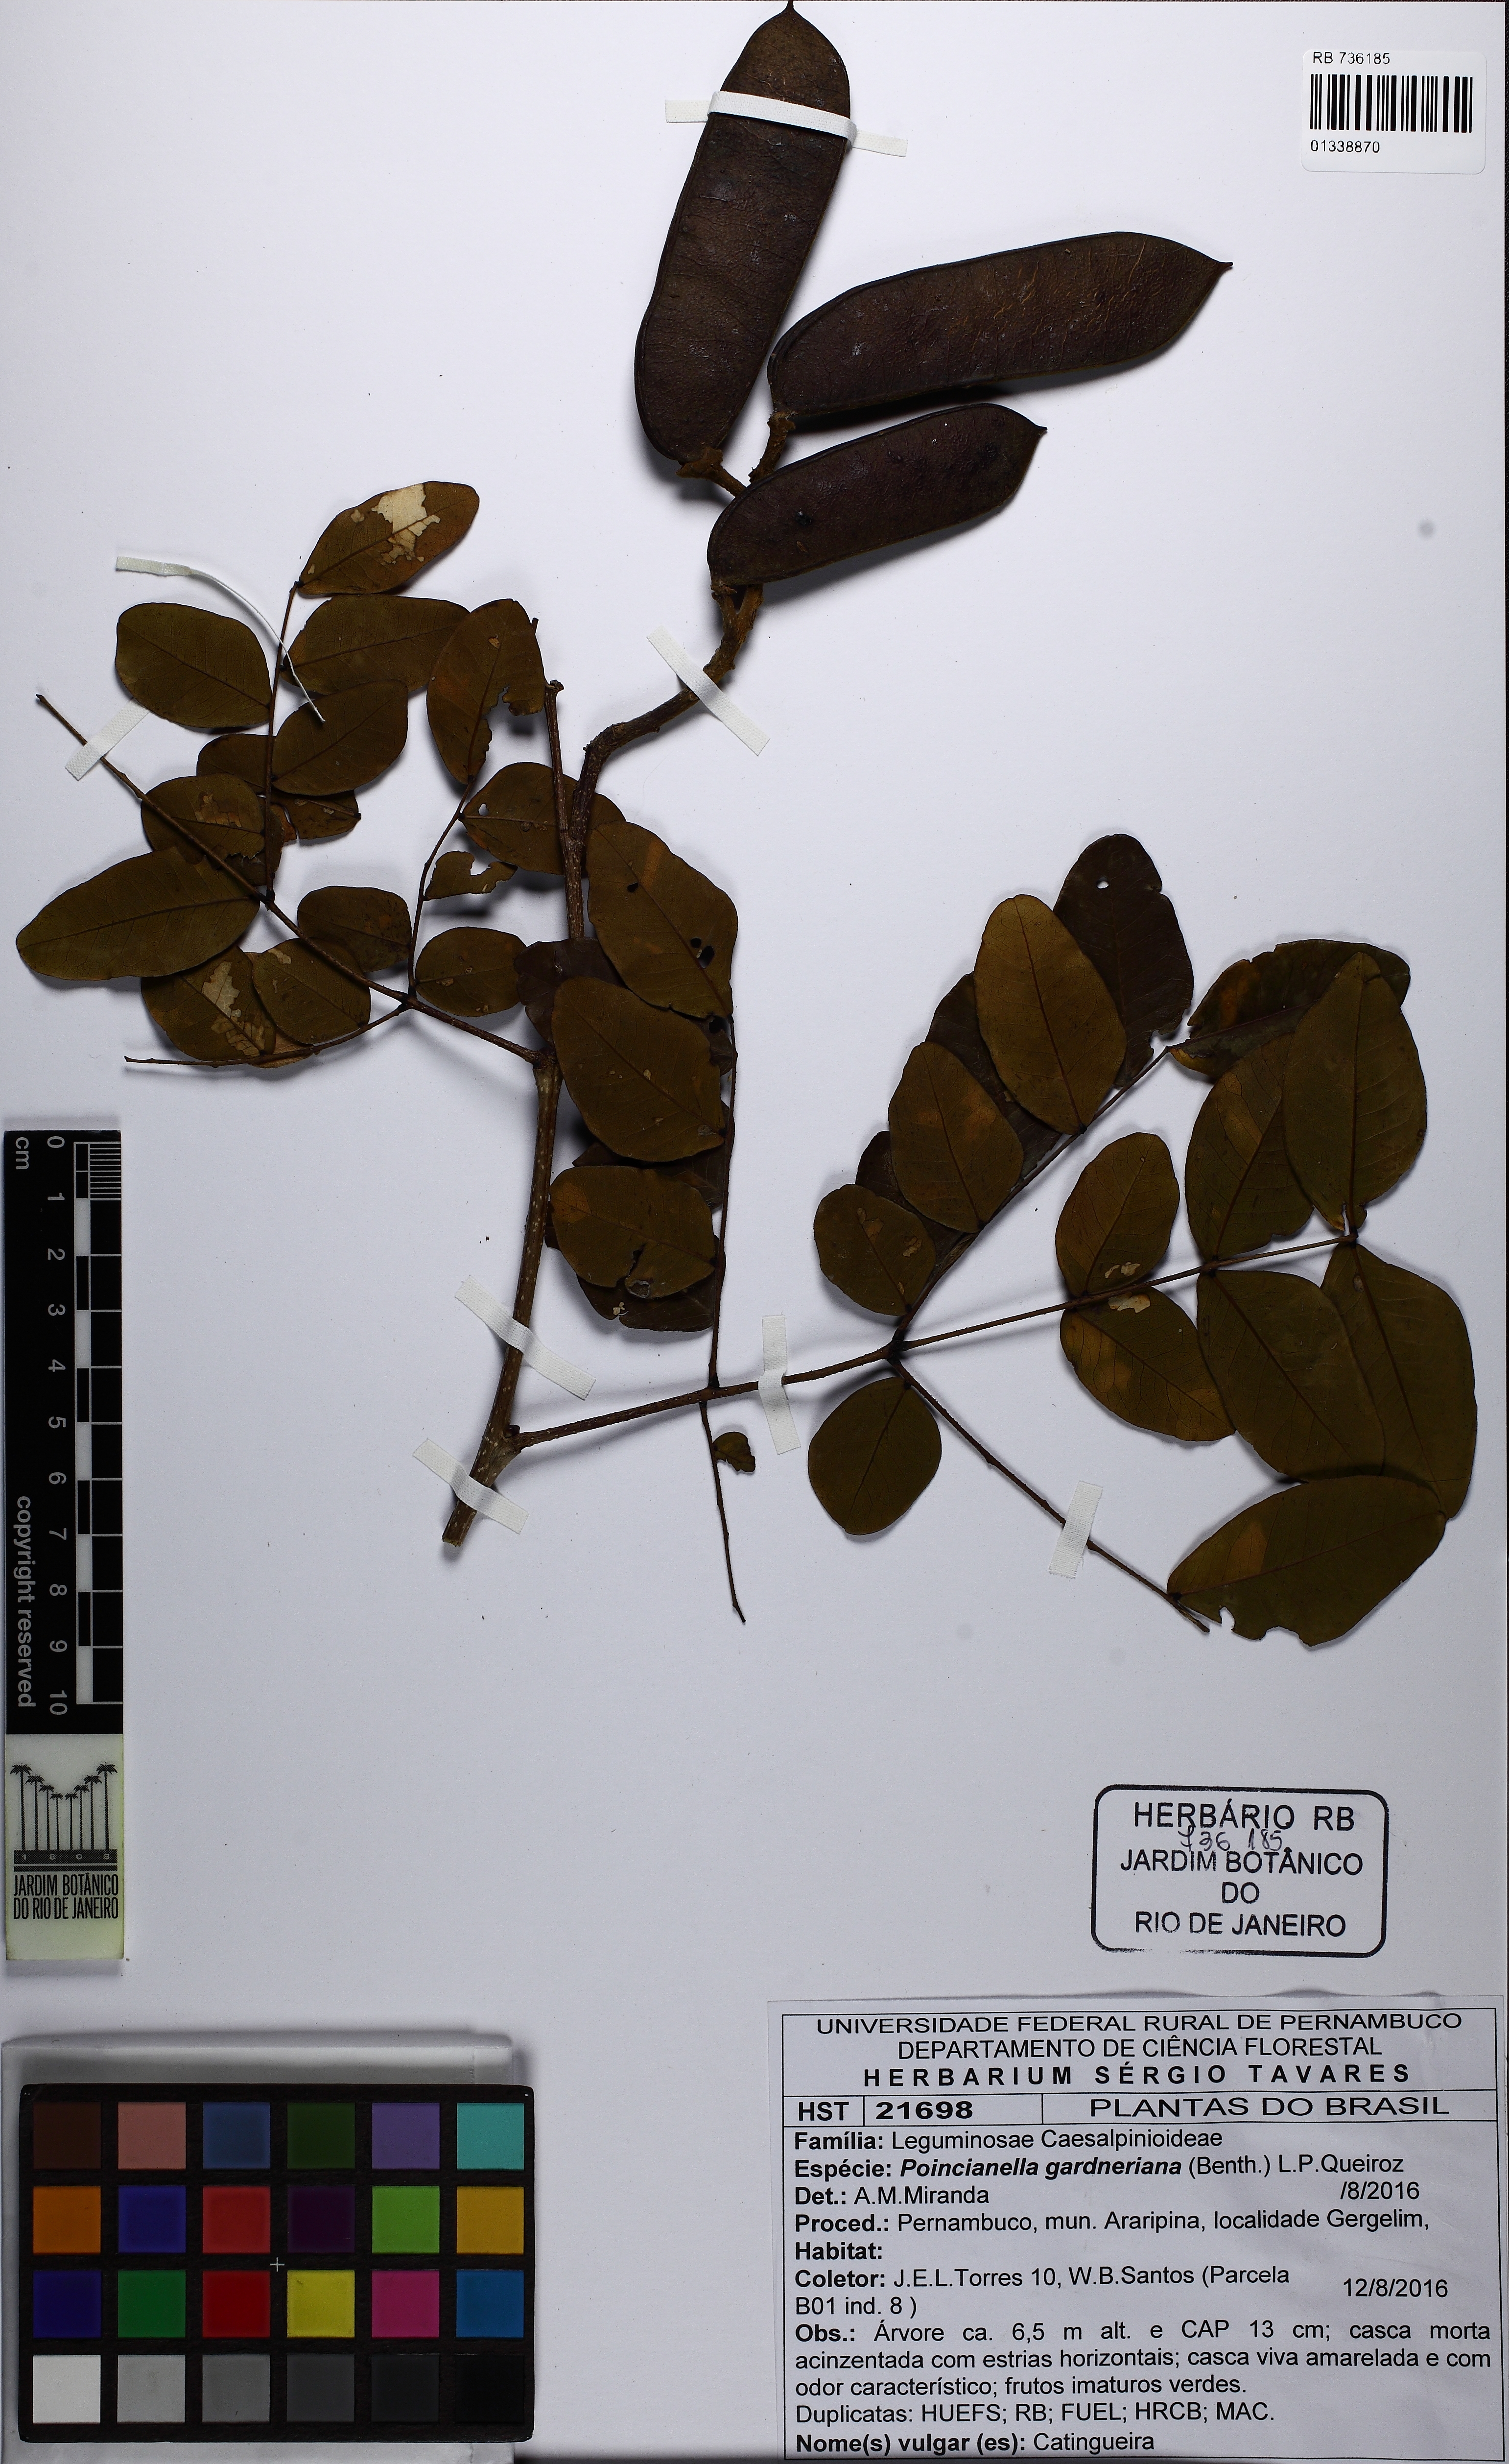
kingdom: Plantae
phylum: Tracheophyta
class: Magnoliopsida
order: Fabales
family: Fabaceae
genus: Cenostigma
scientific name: Cenostigma nordestinum
